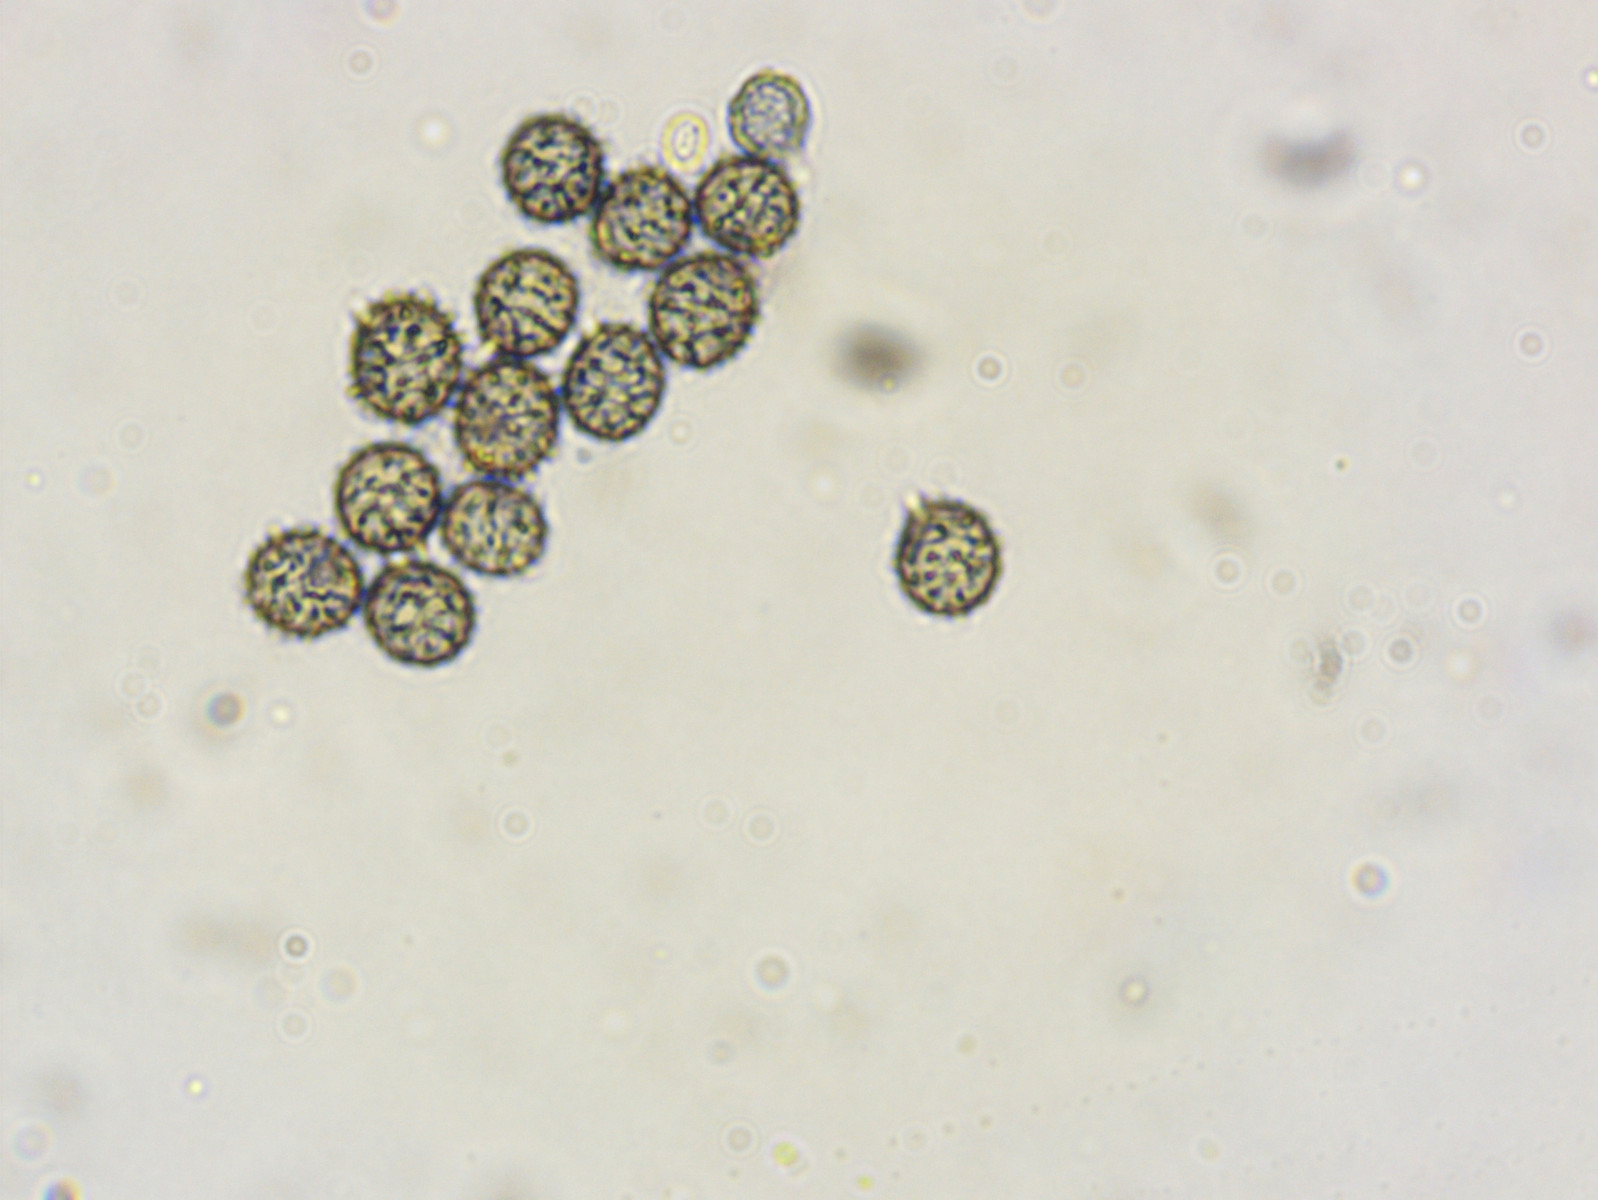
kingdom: Fungi
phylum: Basidiomycota
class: Agaricomycetes
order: Russulales
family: Russulaceae
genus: Russula
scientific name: Russula turci
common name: jod-skørhat
